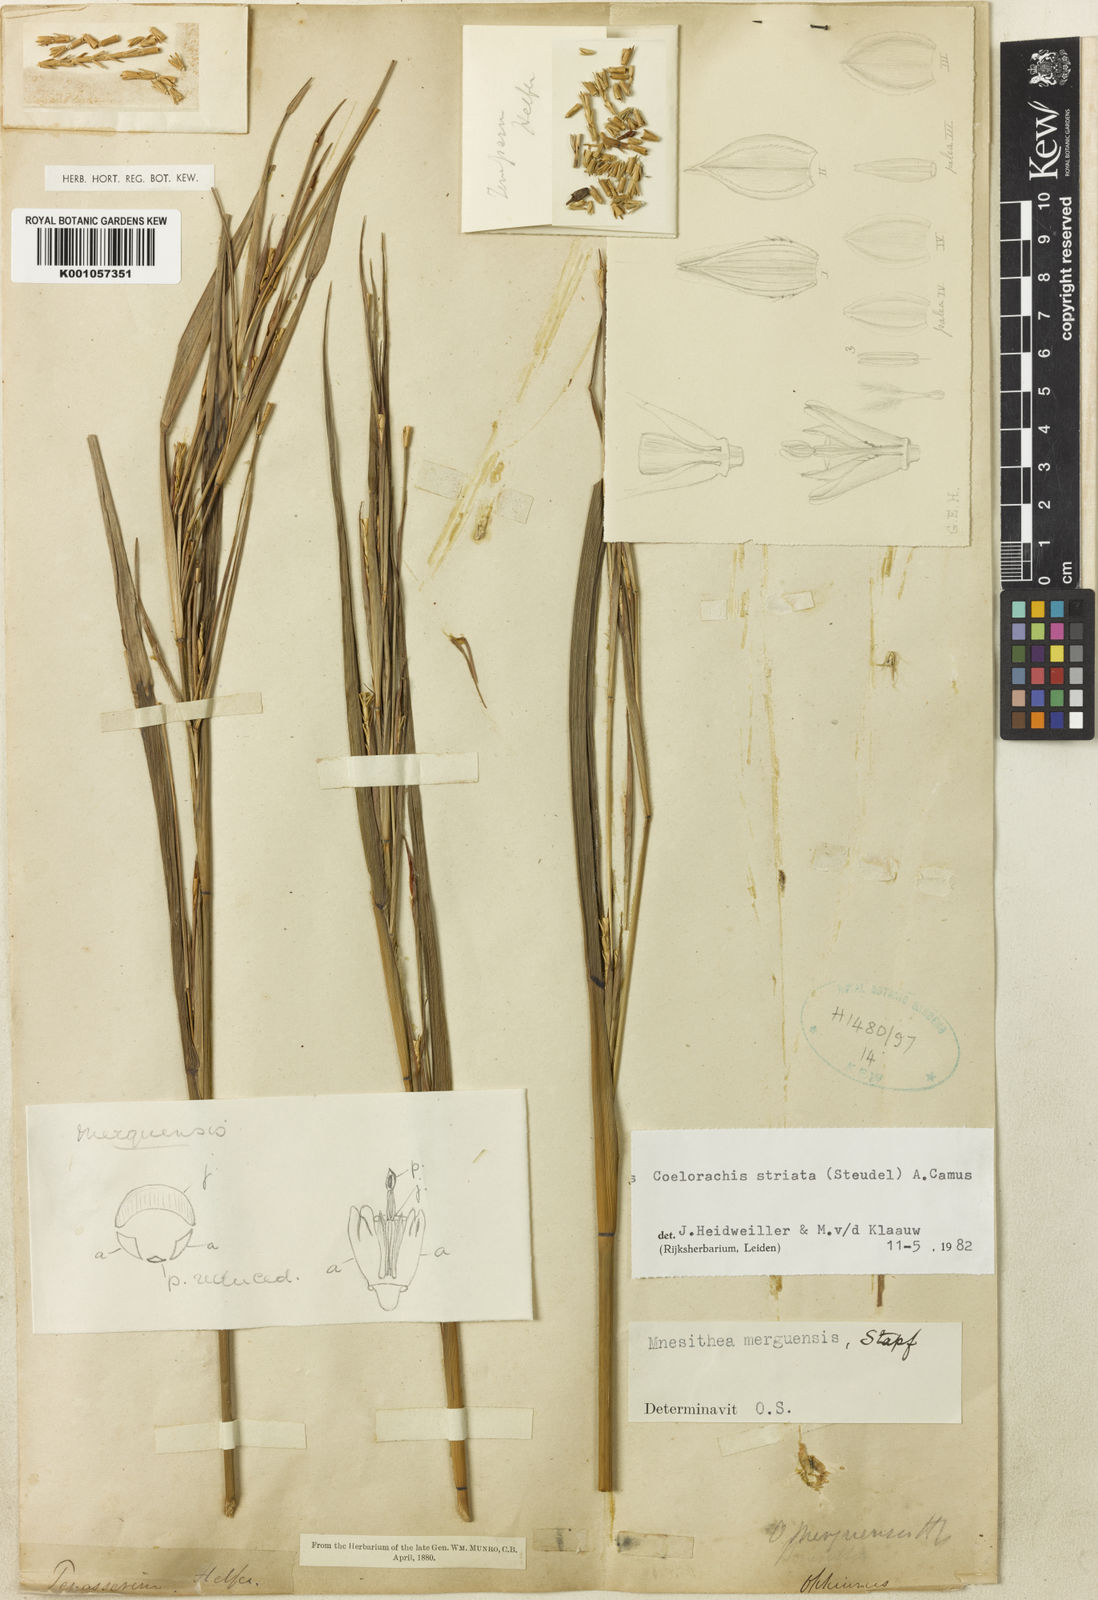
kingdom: Plantae
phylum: Tracheophyta
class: Liliopsida
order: Poales
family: Poaceae
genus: Rottboellia
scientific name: Rottboellia striata
